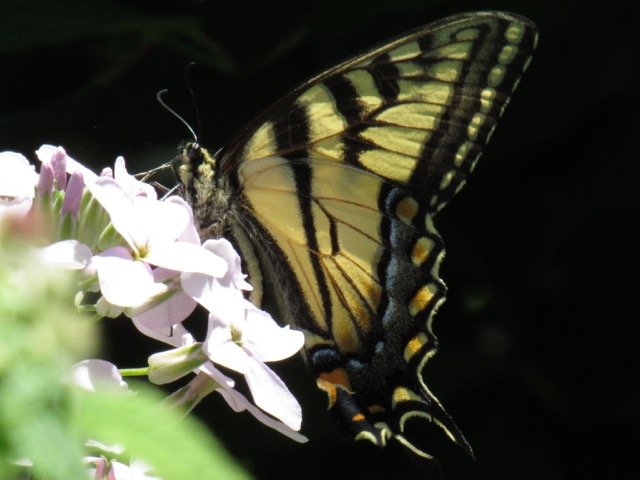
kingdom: Animalia
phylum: Arthropoda
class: Insecta
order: Lepidoptera
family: Papilionidae
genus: Pterourus
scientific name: Pterourus canadensis
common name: Canadian Tiger Swallowtail
